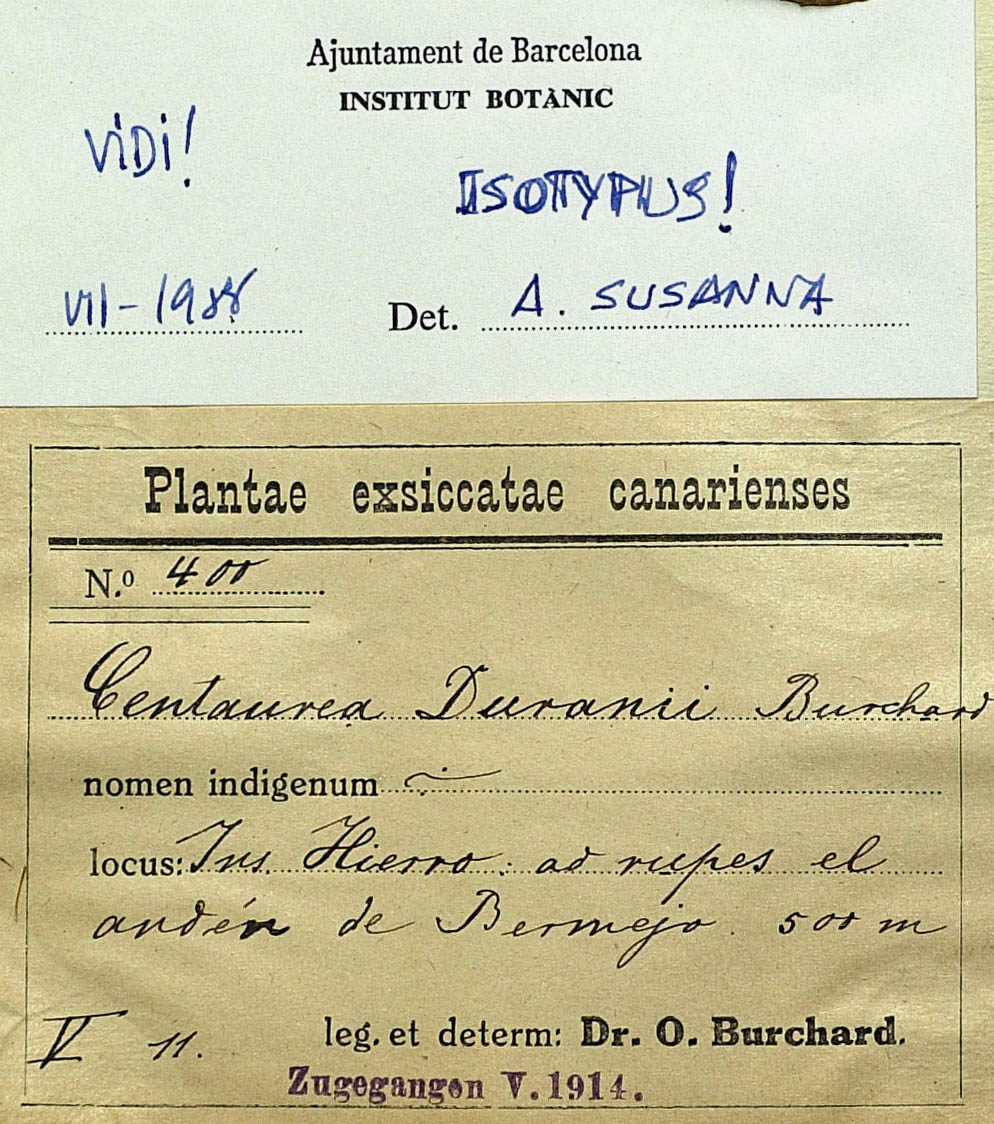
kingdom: Plantae
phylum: Tracheophyta
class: Magnoliopsida
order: Asterales
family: Asteraceae
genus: Cheirolophus
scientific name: Cheirolophus duranii
